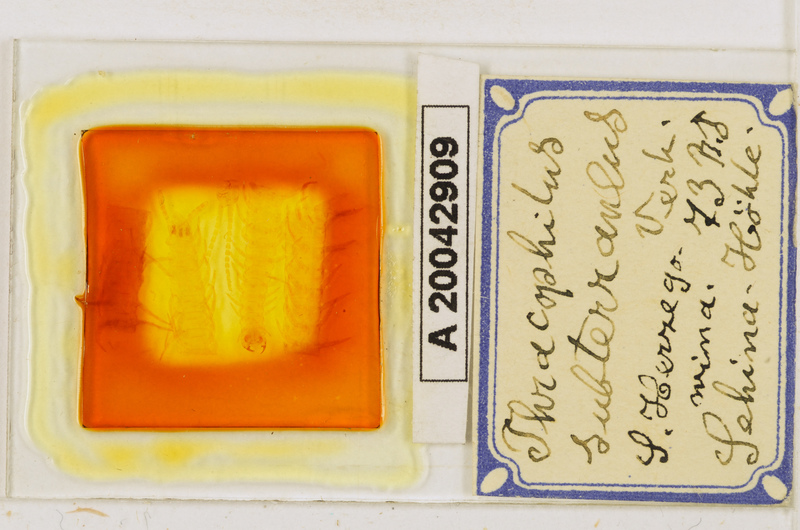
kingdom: Animalia
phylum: Arthropoda
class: Chilopoda
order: Geophilomorpha
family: Himantariidae
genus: Thracophilus
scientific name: Thracophilus subterraneus
